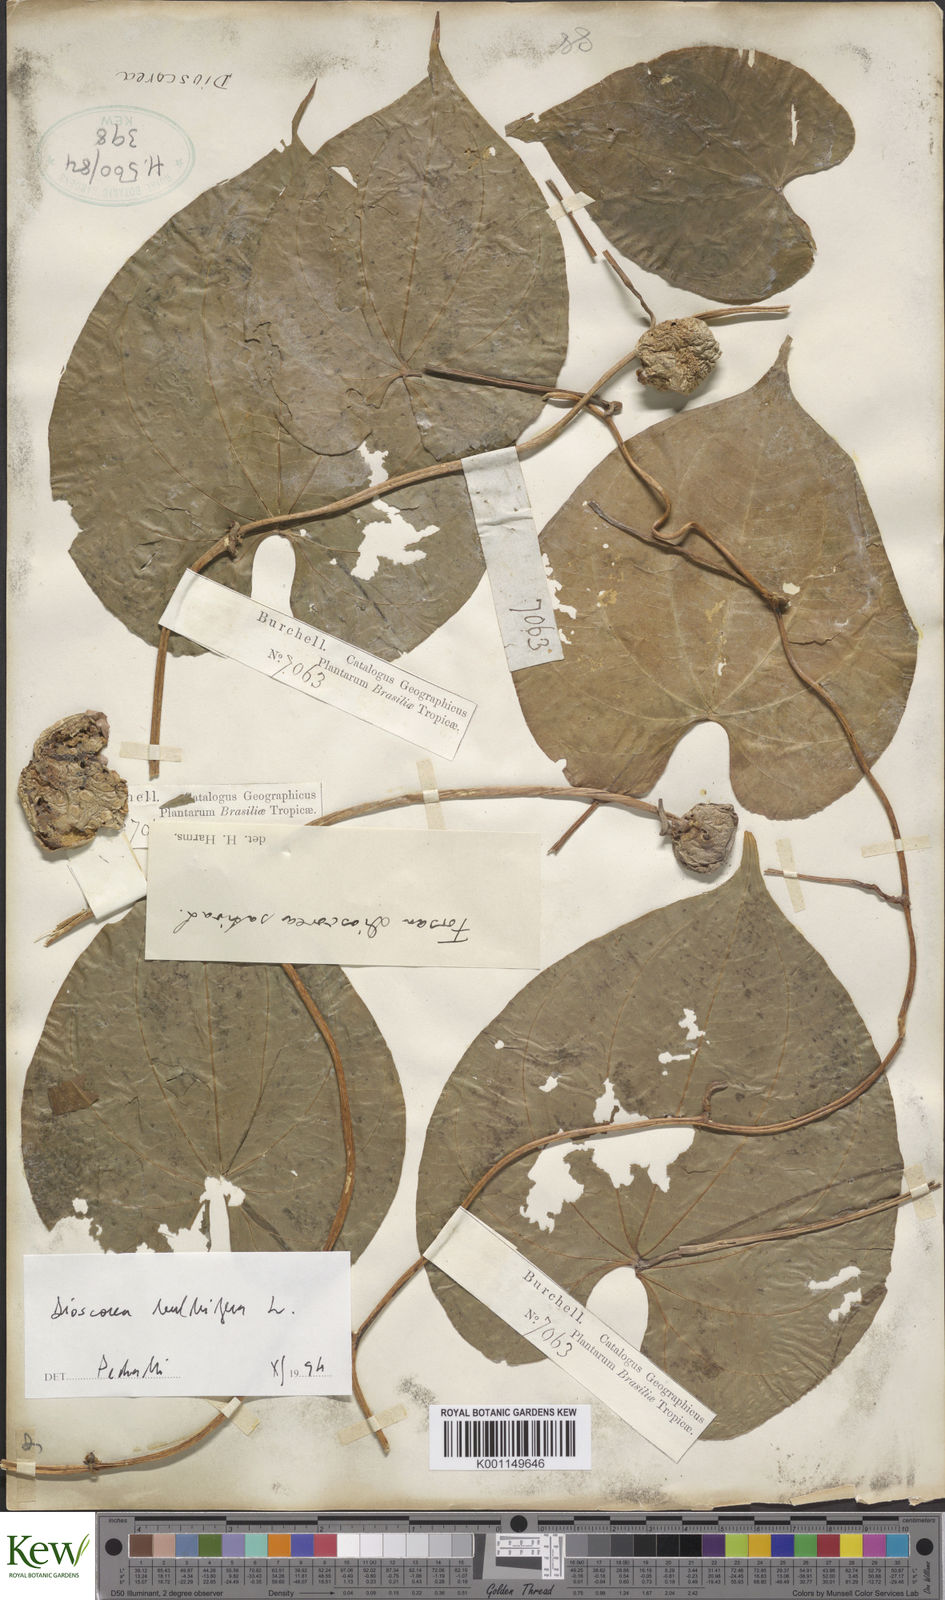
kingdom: Plantae
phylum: Tracheophyta
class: Liliopsida
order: Dioscoreales
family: Dioscoreaceae
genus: Dioscorea
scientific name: Dioscorea bulbifera
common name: Air yam
